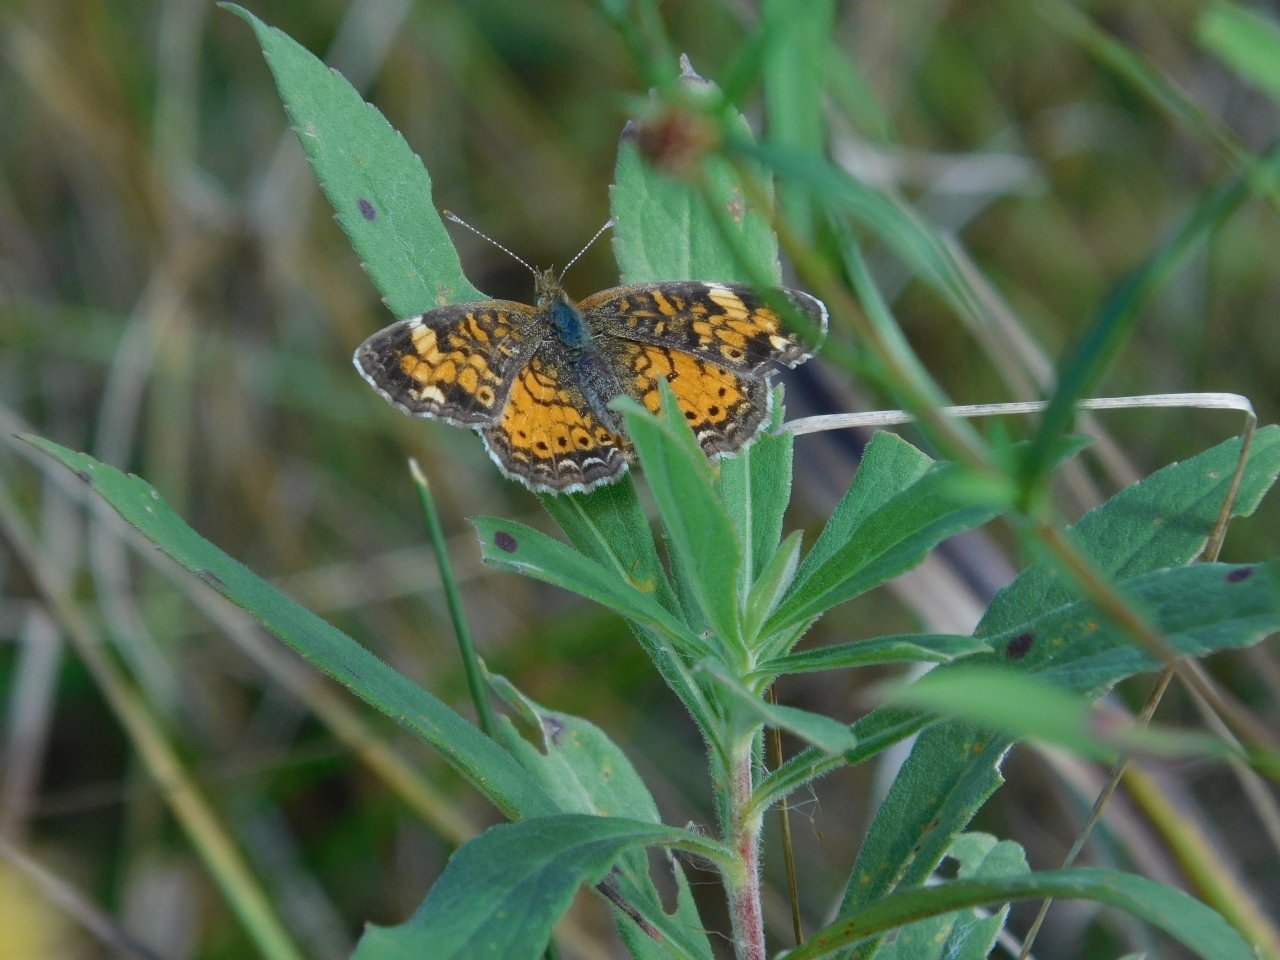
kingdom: Animalia
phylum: Arthropoda
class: Insecta
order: Lepidoptera
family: Nymphalidae
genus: Phyciodes
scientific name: Phyciodes tharos
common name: Pearl Crescent
